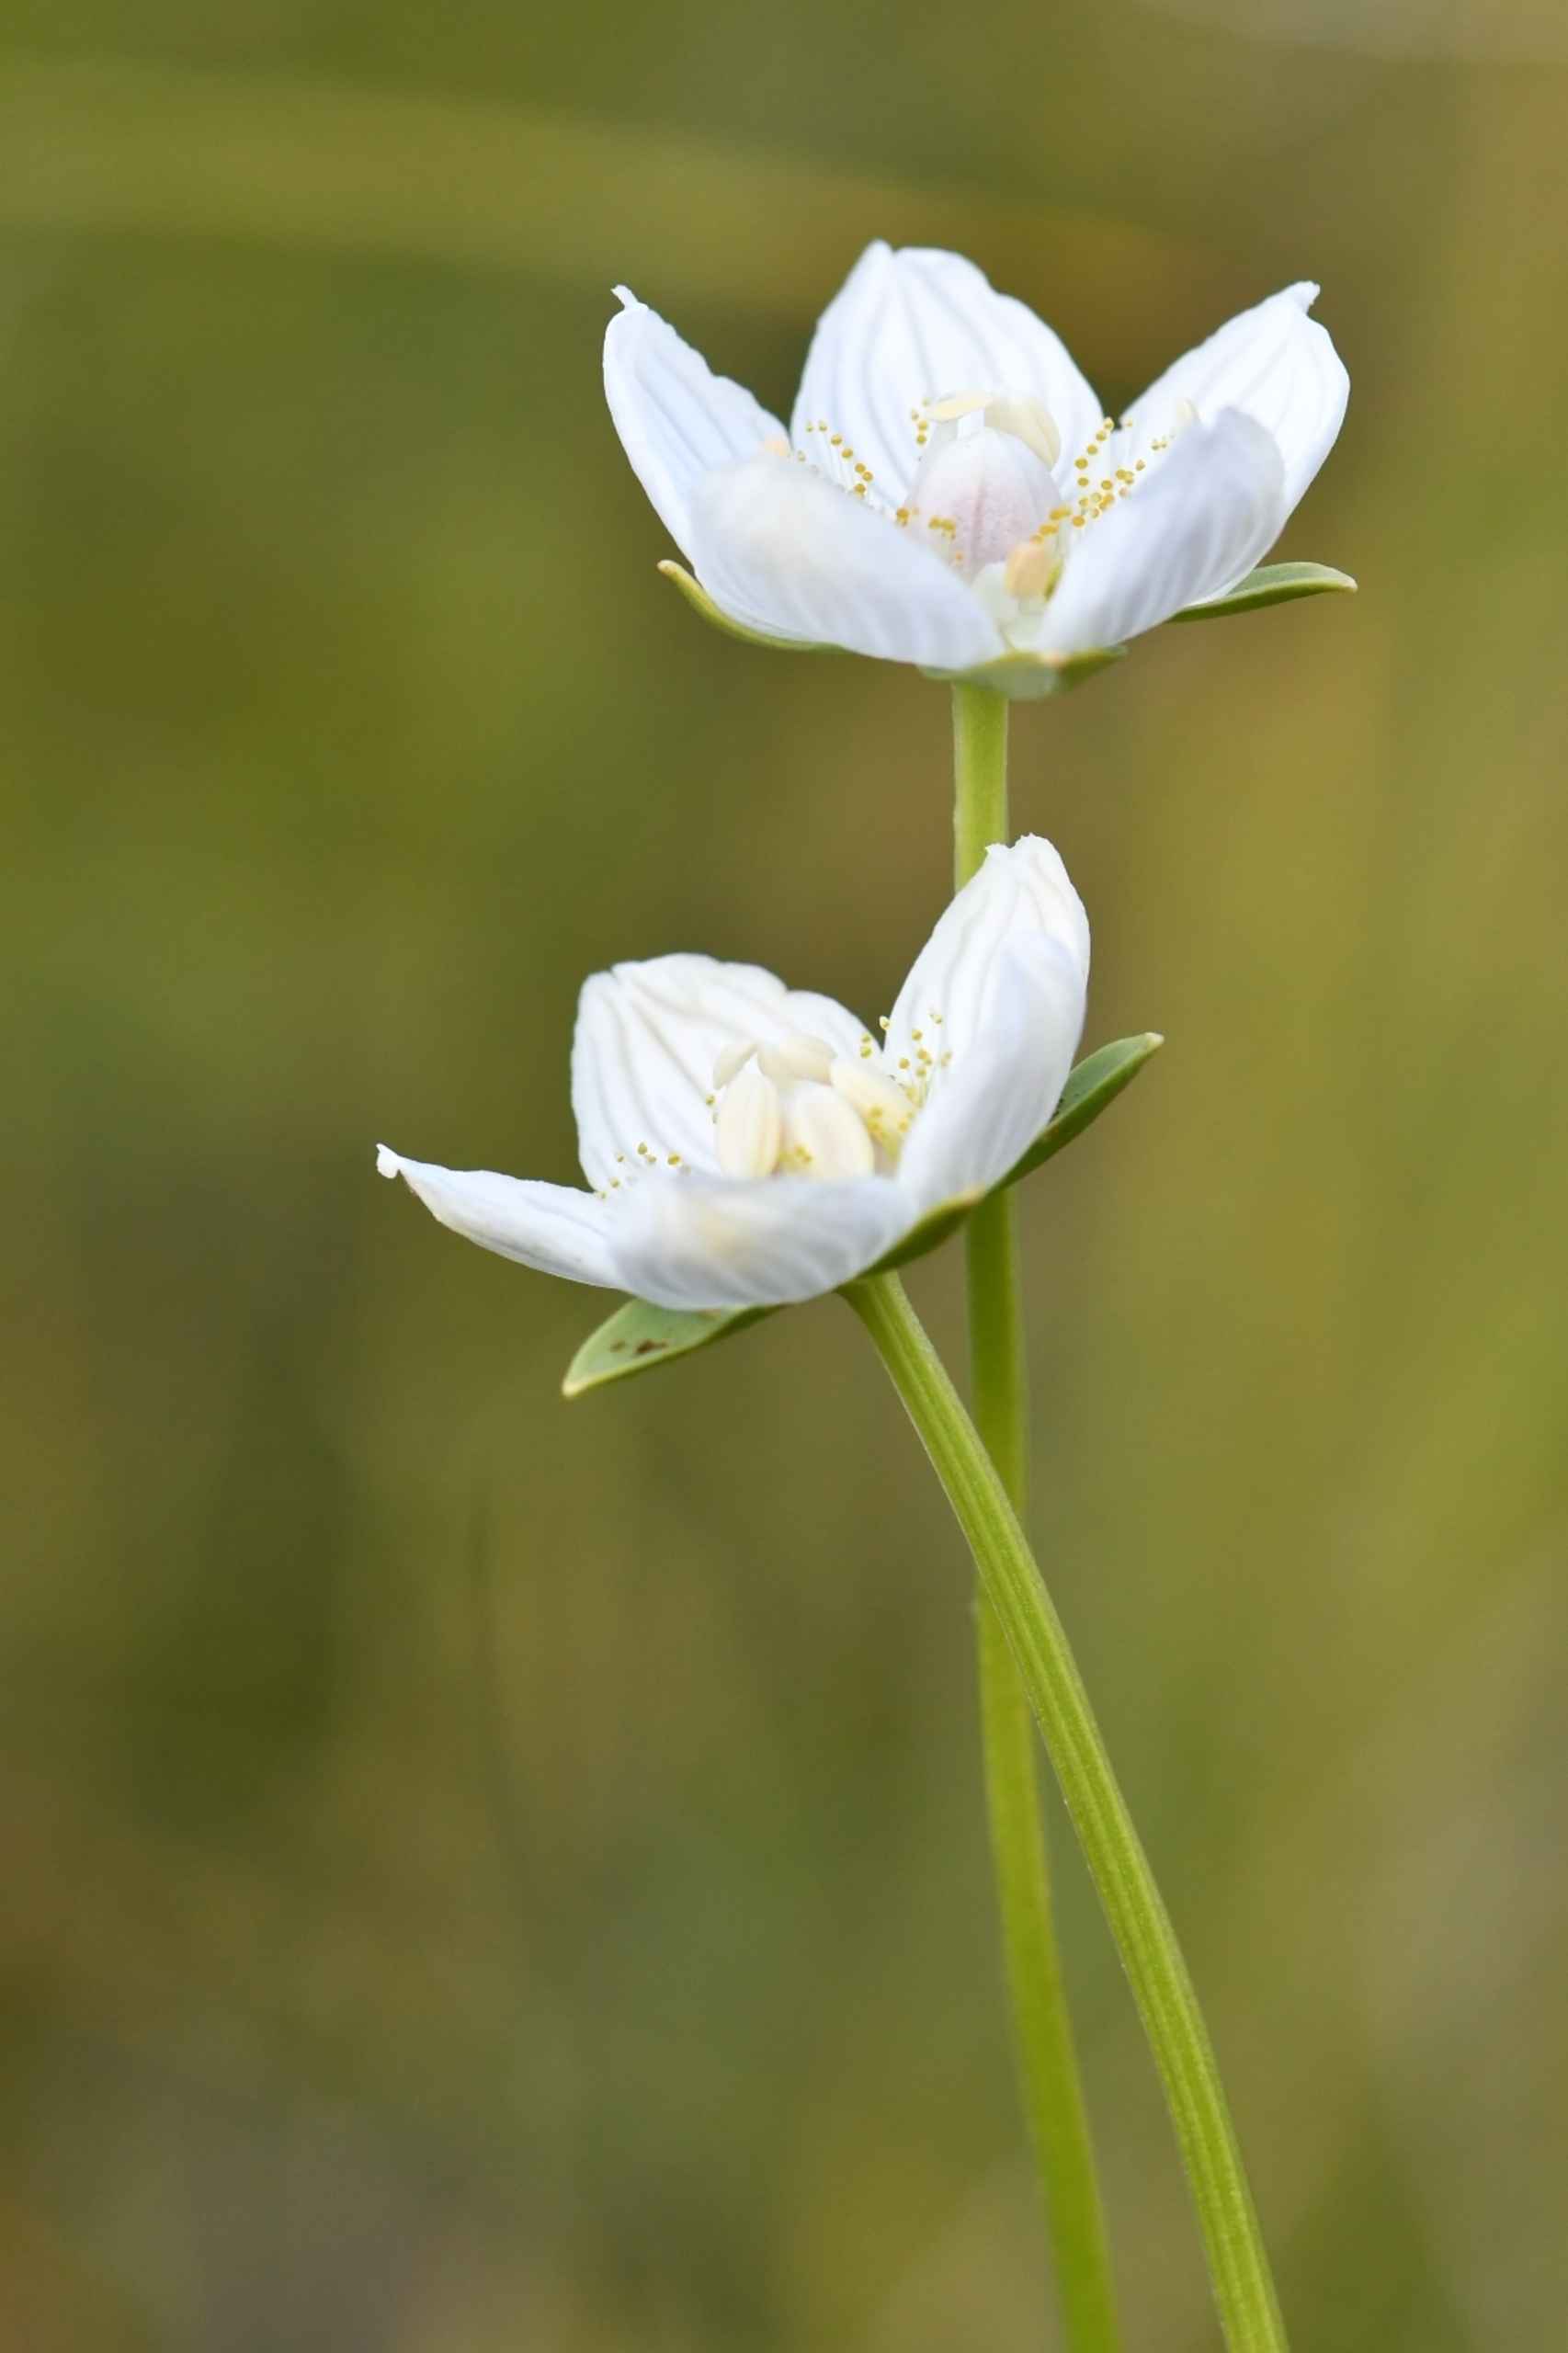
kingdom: Plantae
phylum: Tracheophyta
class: Magnoliopsida
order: Celastrales
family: Parnassiaceae
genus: Parnassia
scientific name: Parnassia palustris
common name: Leverurt
